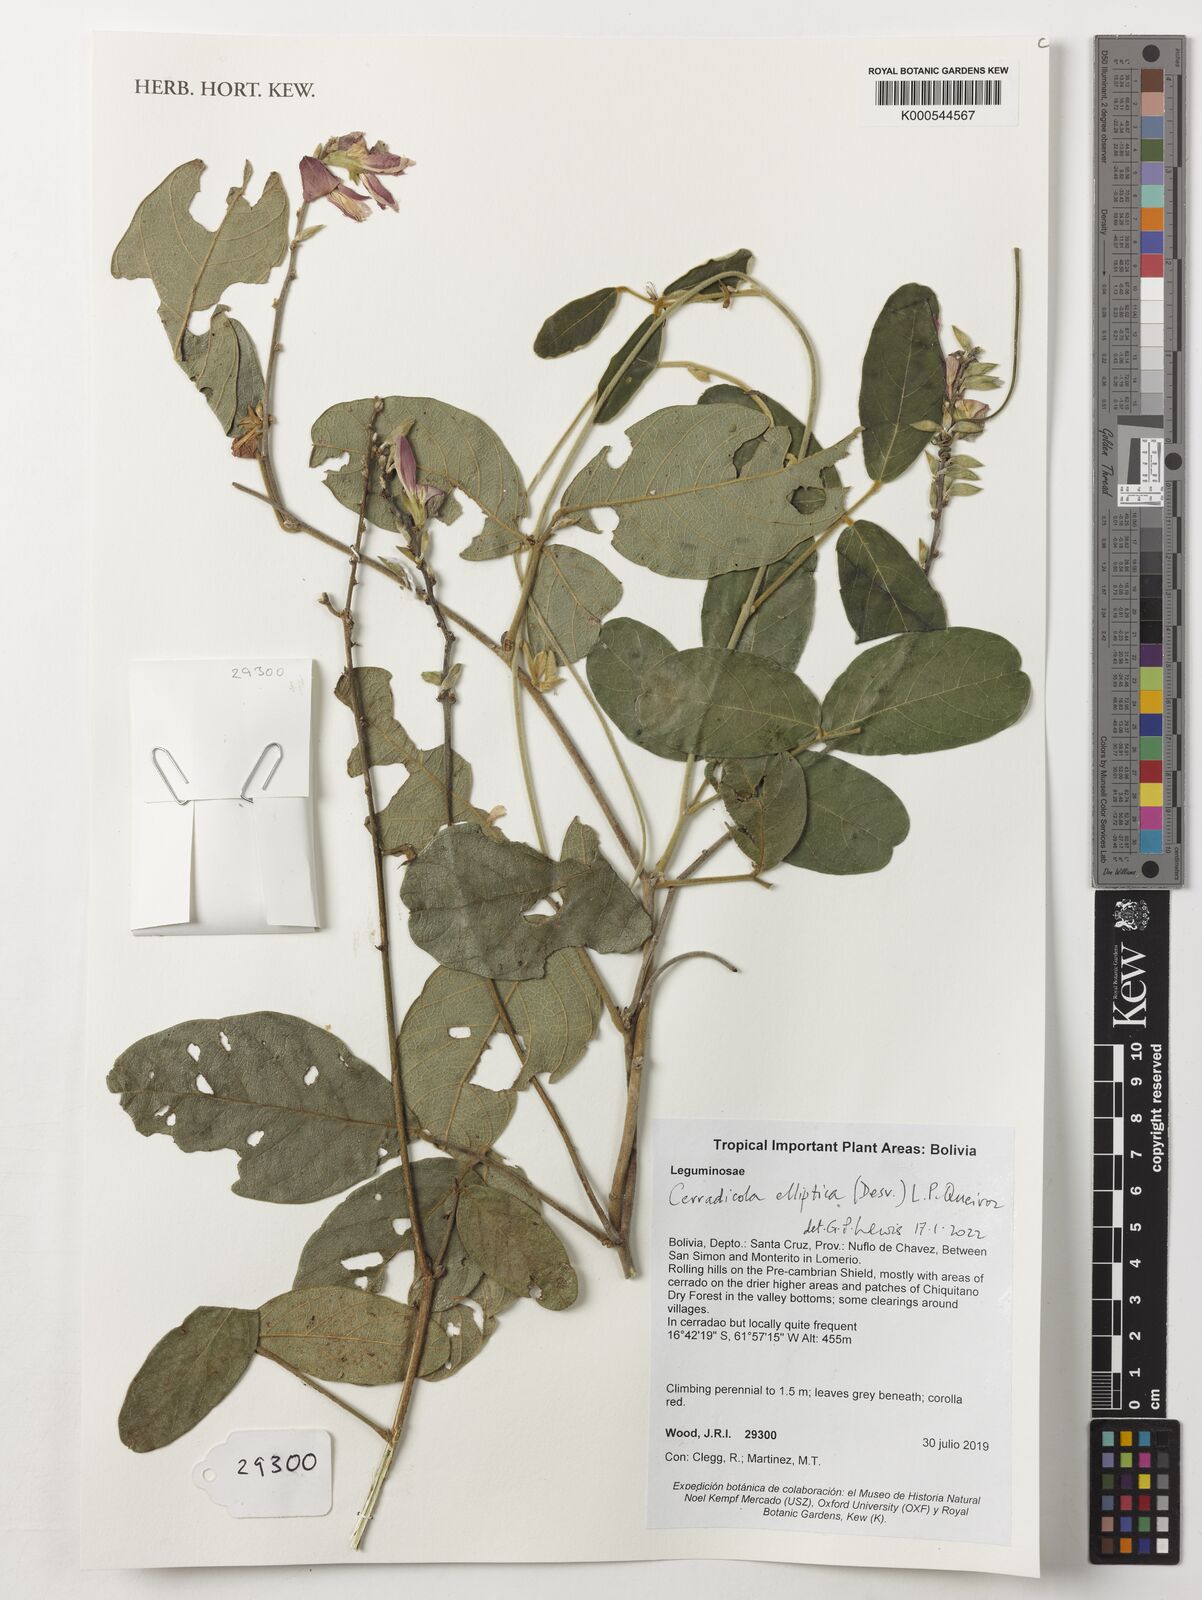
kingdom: Plantae
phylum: Tracheophyta
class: Magnoliopsida
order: Fabales
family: Fabaceae
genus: Cerradicola
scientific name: Cerradicola elliptica
